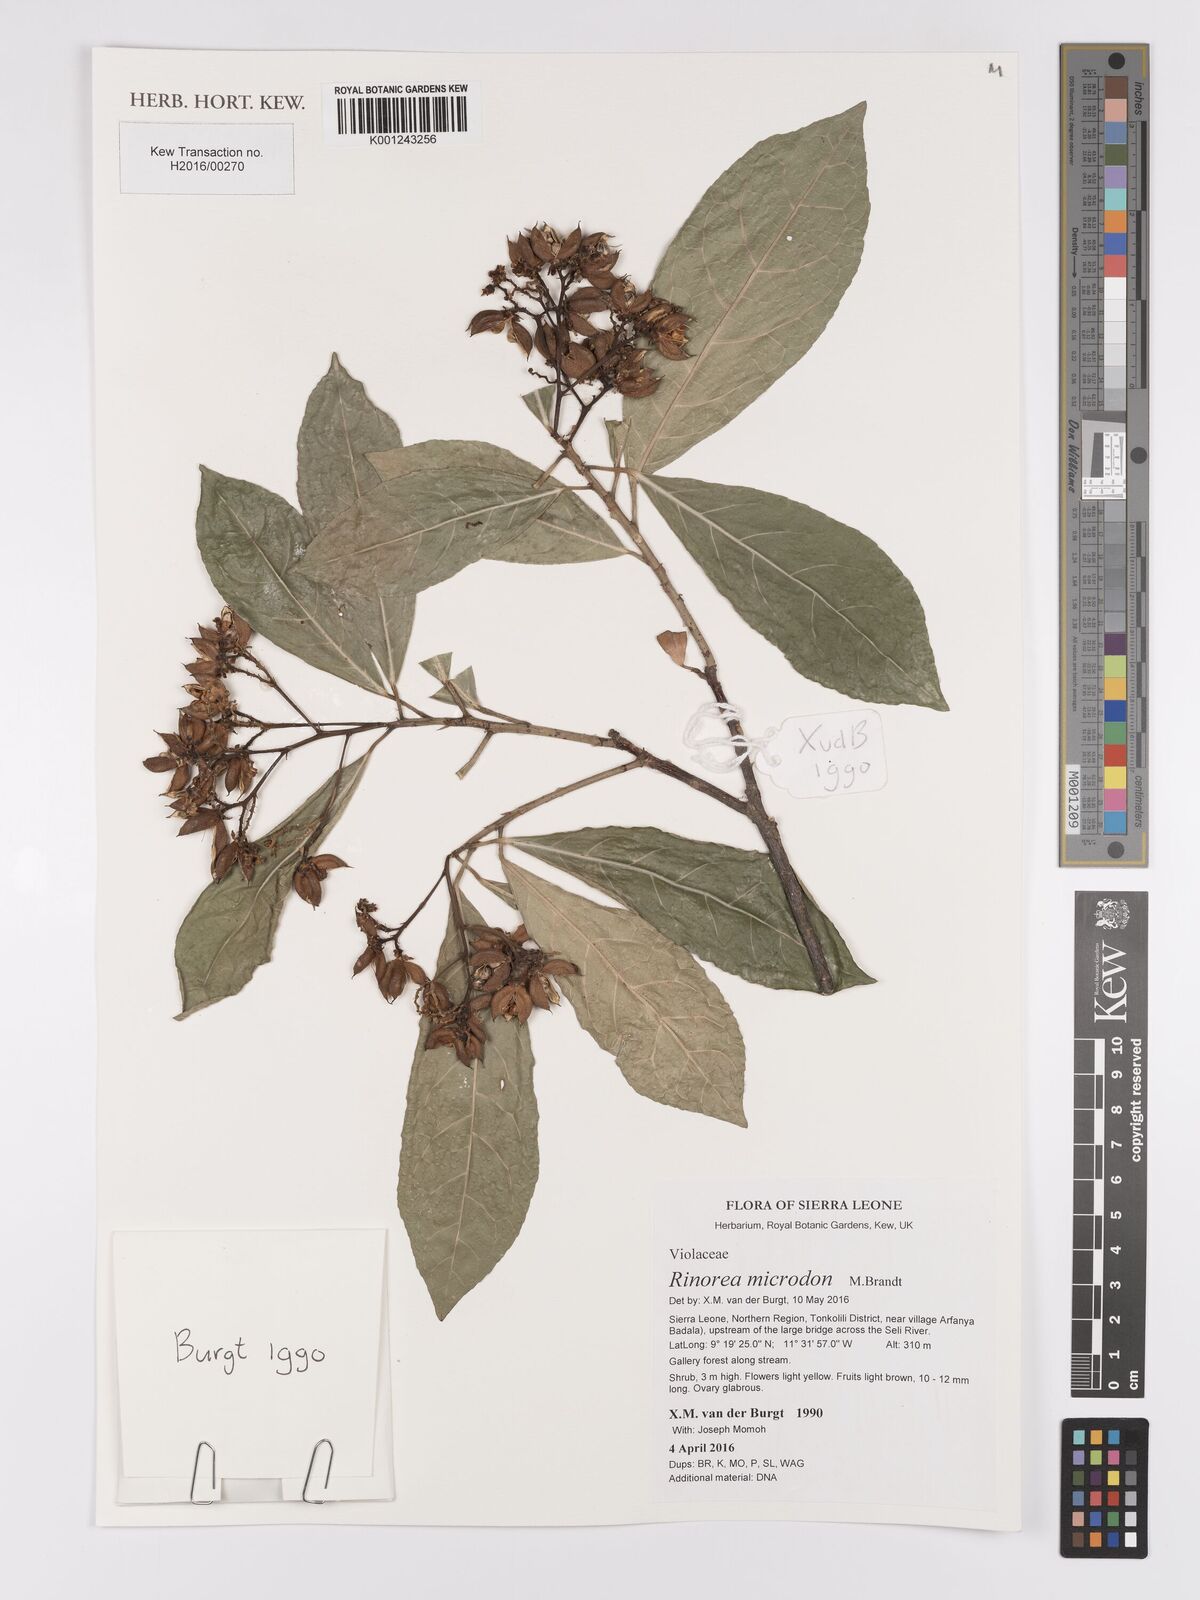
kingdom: Plantae
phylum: Tracheophyta
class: Magnoliopsida
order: Malpighiales
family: Violaceae
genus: Rinorea
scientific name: Rinorea microdon
